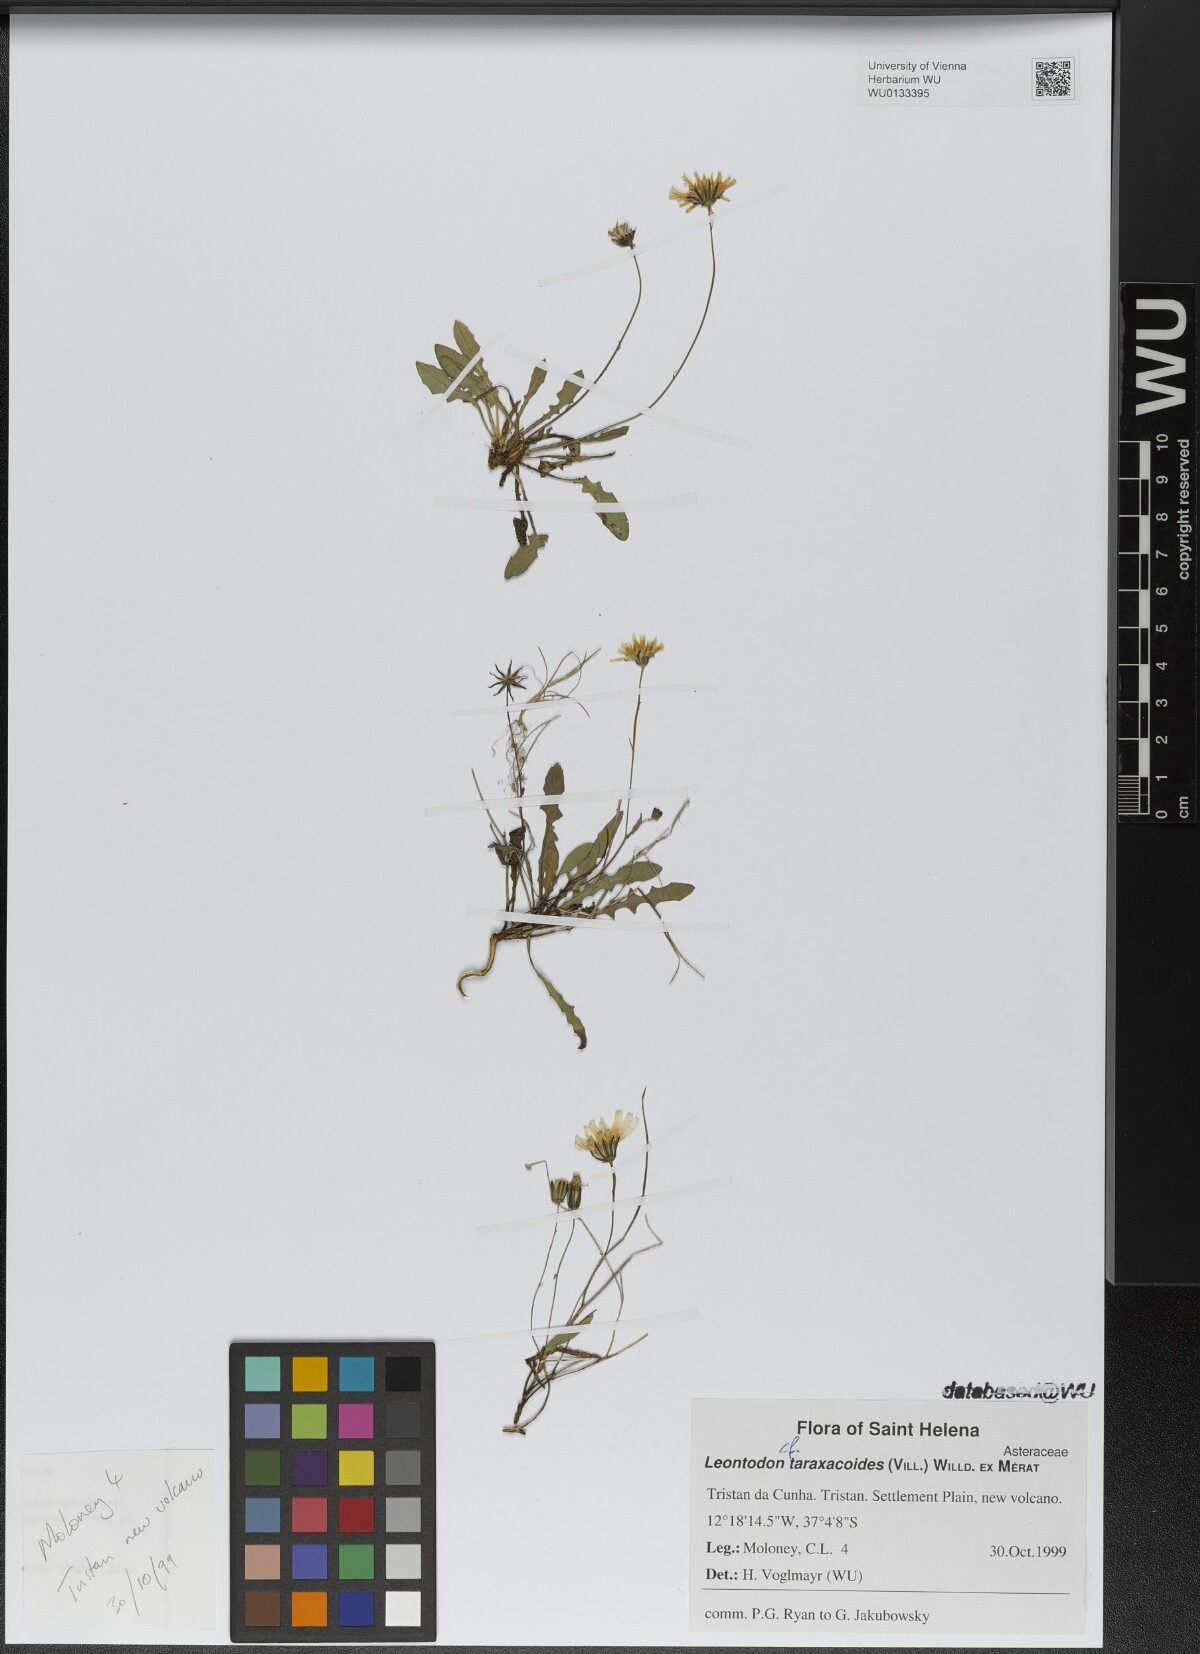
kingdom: Plantae
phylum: Tracheophyta
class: Magnoliopsida
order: Asterales
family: Asteraceae
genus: Thrincia
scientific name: Thrincia saxatilis
